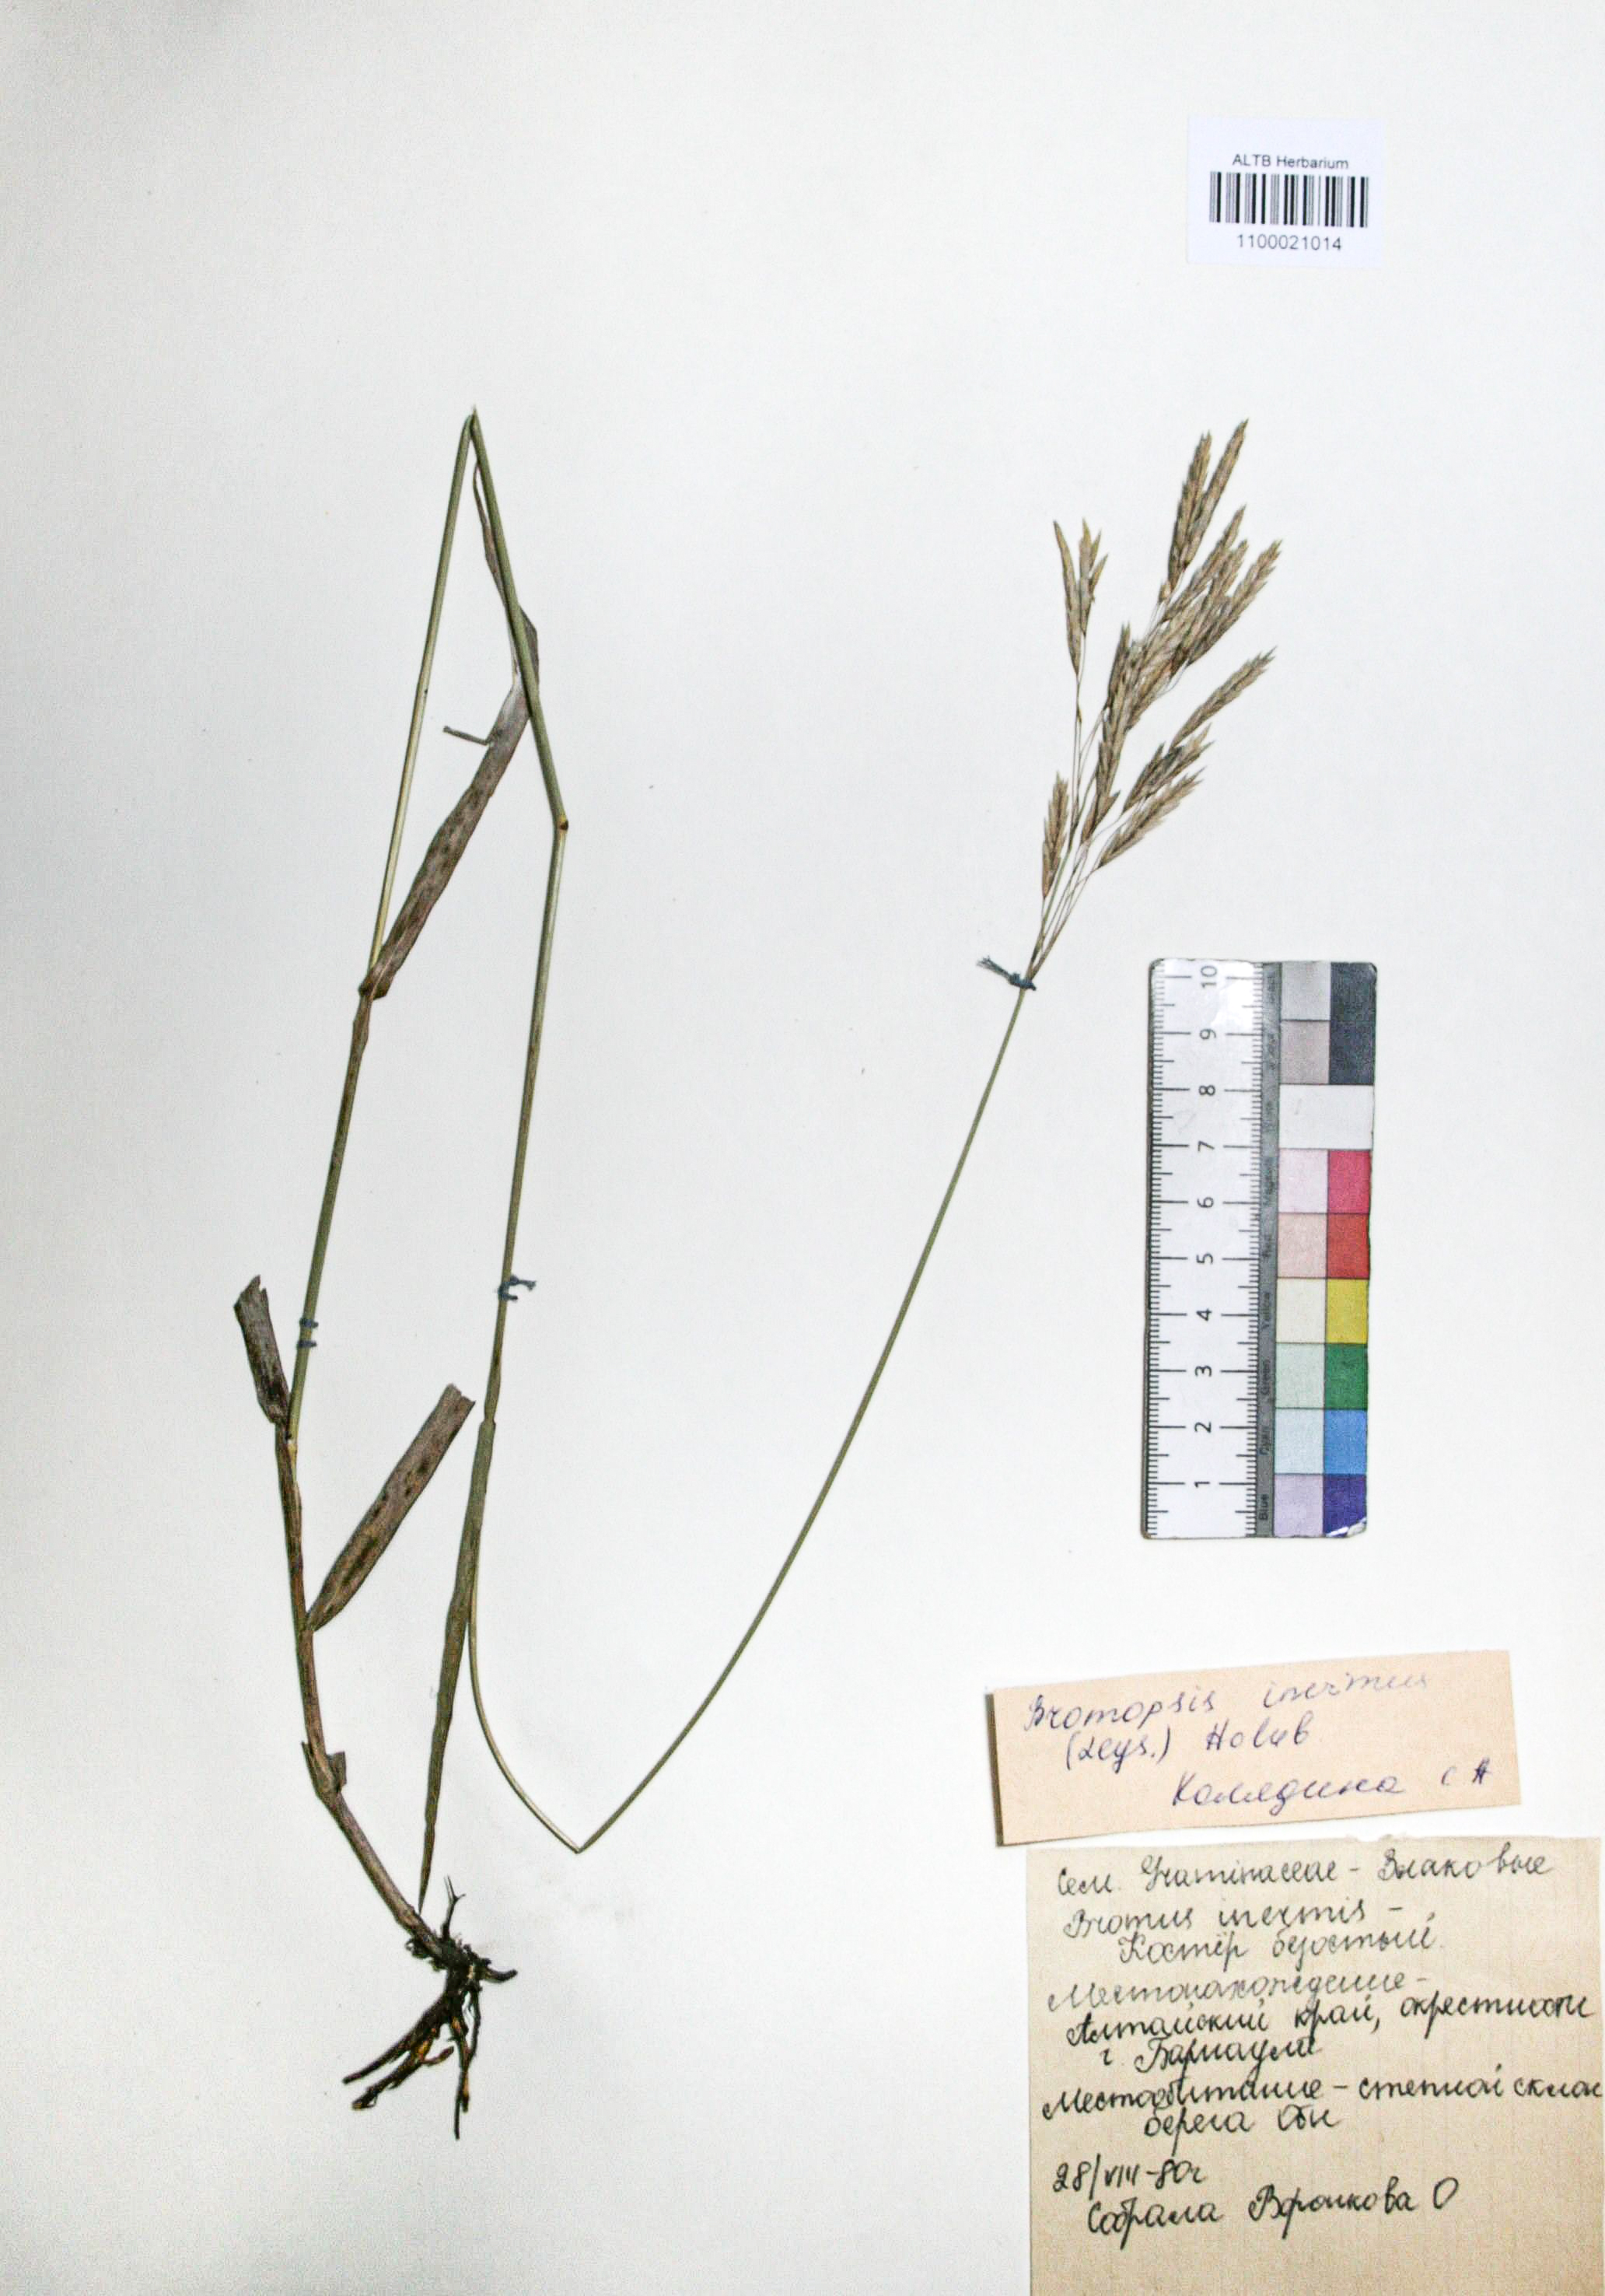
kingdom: Plantae
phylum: Tracheophyta
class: Liliopsida
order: Poales
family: Poaceae
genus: Bromus
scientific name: Bromus inermis
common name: Smooth brome
